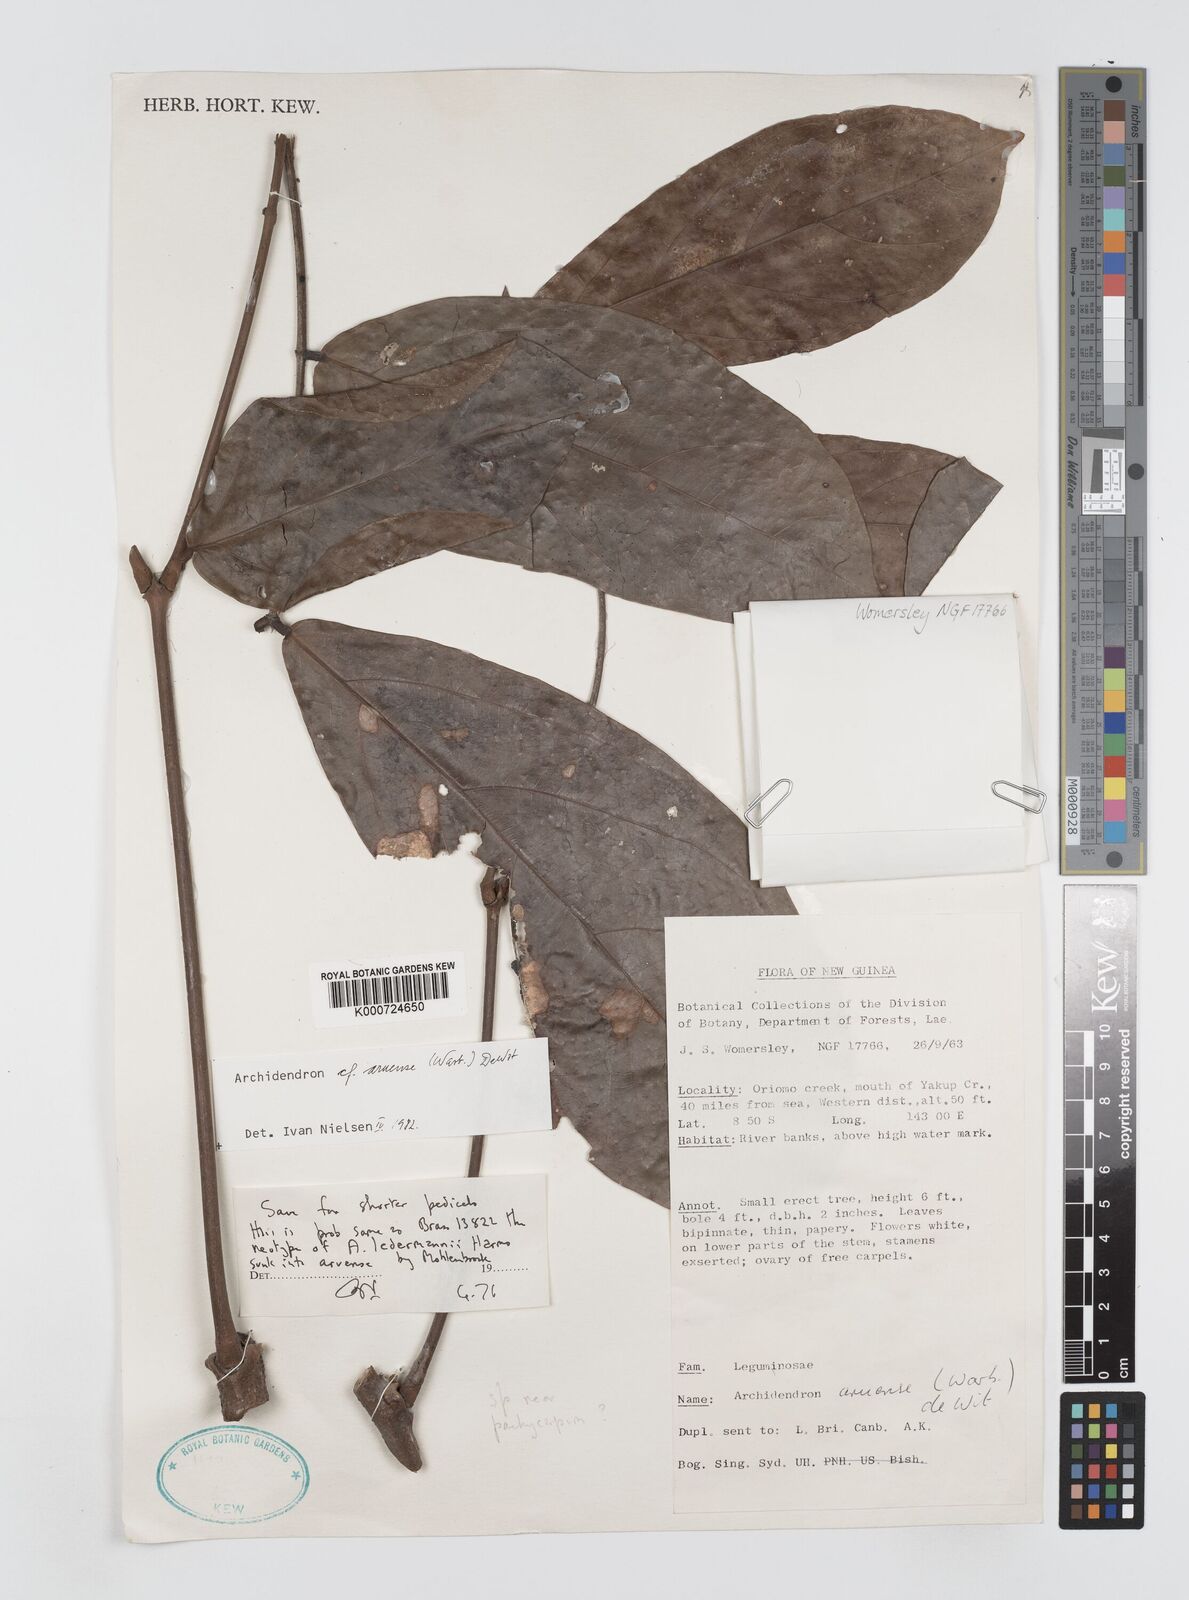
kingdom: Plantae
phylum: Tracheophyta
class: Magnoliopsida
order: Fabales
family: Fabaceae
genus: Archidendron
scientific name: Archidendron aruense
